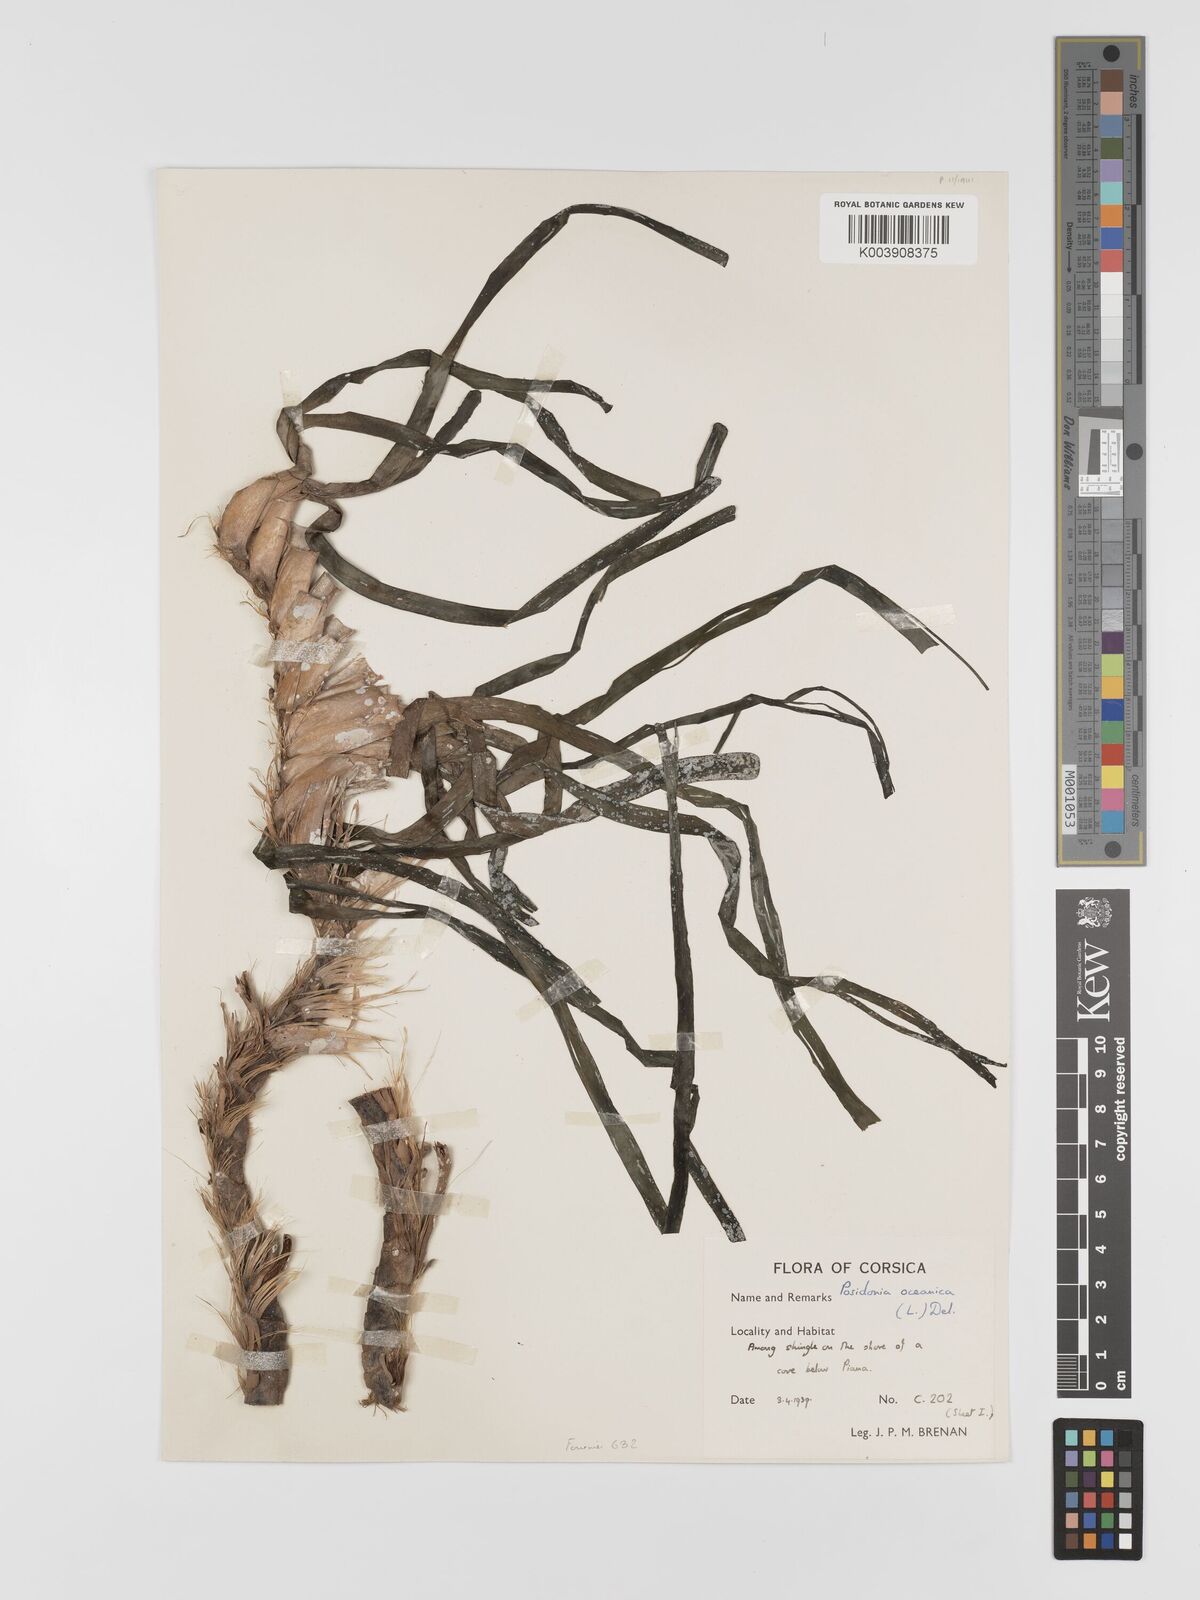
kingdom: Plantae
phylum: Tracheophyta
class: Liliopsida
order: Alismatales
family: Posidoniaceae
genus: Posidonia
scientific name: Posidonia
